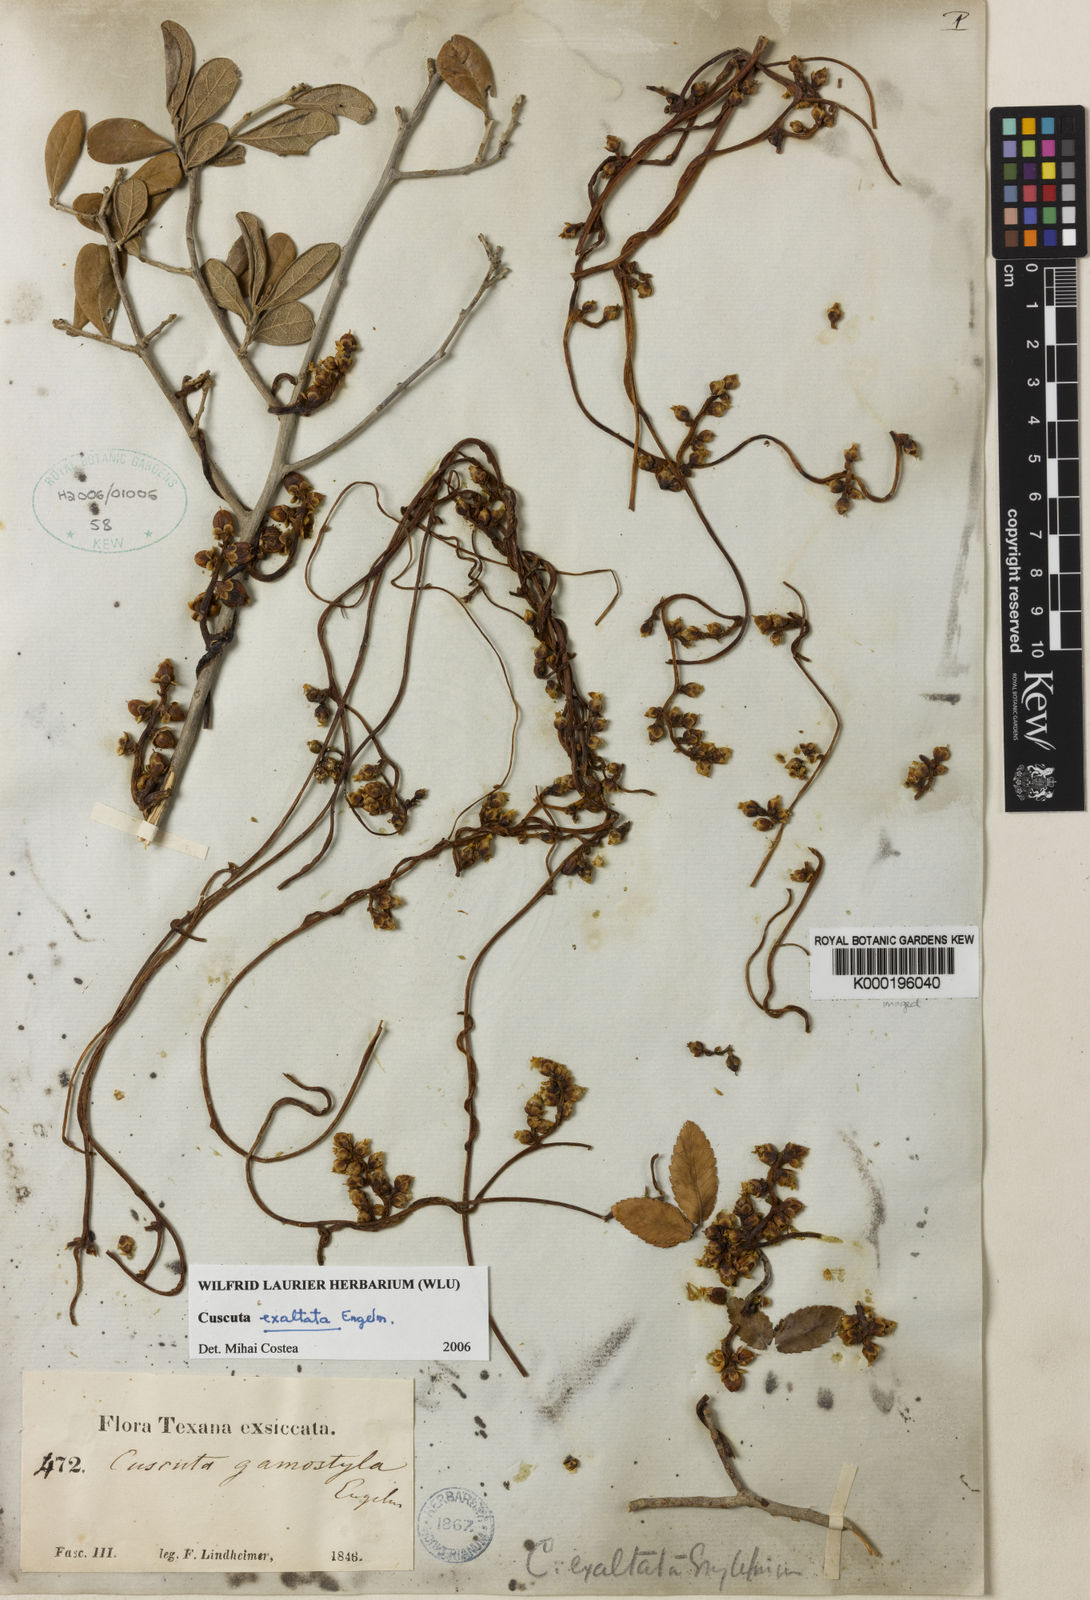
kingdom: Plantae
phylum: Tracheophyta
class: Magnoliopsida
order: Solanales
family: Convolvulaceae
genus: Cuscuta
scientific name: Cuscuta exaltata
